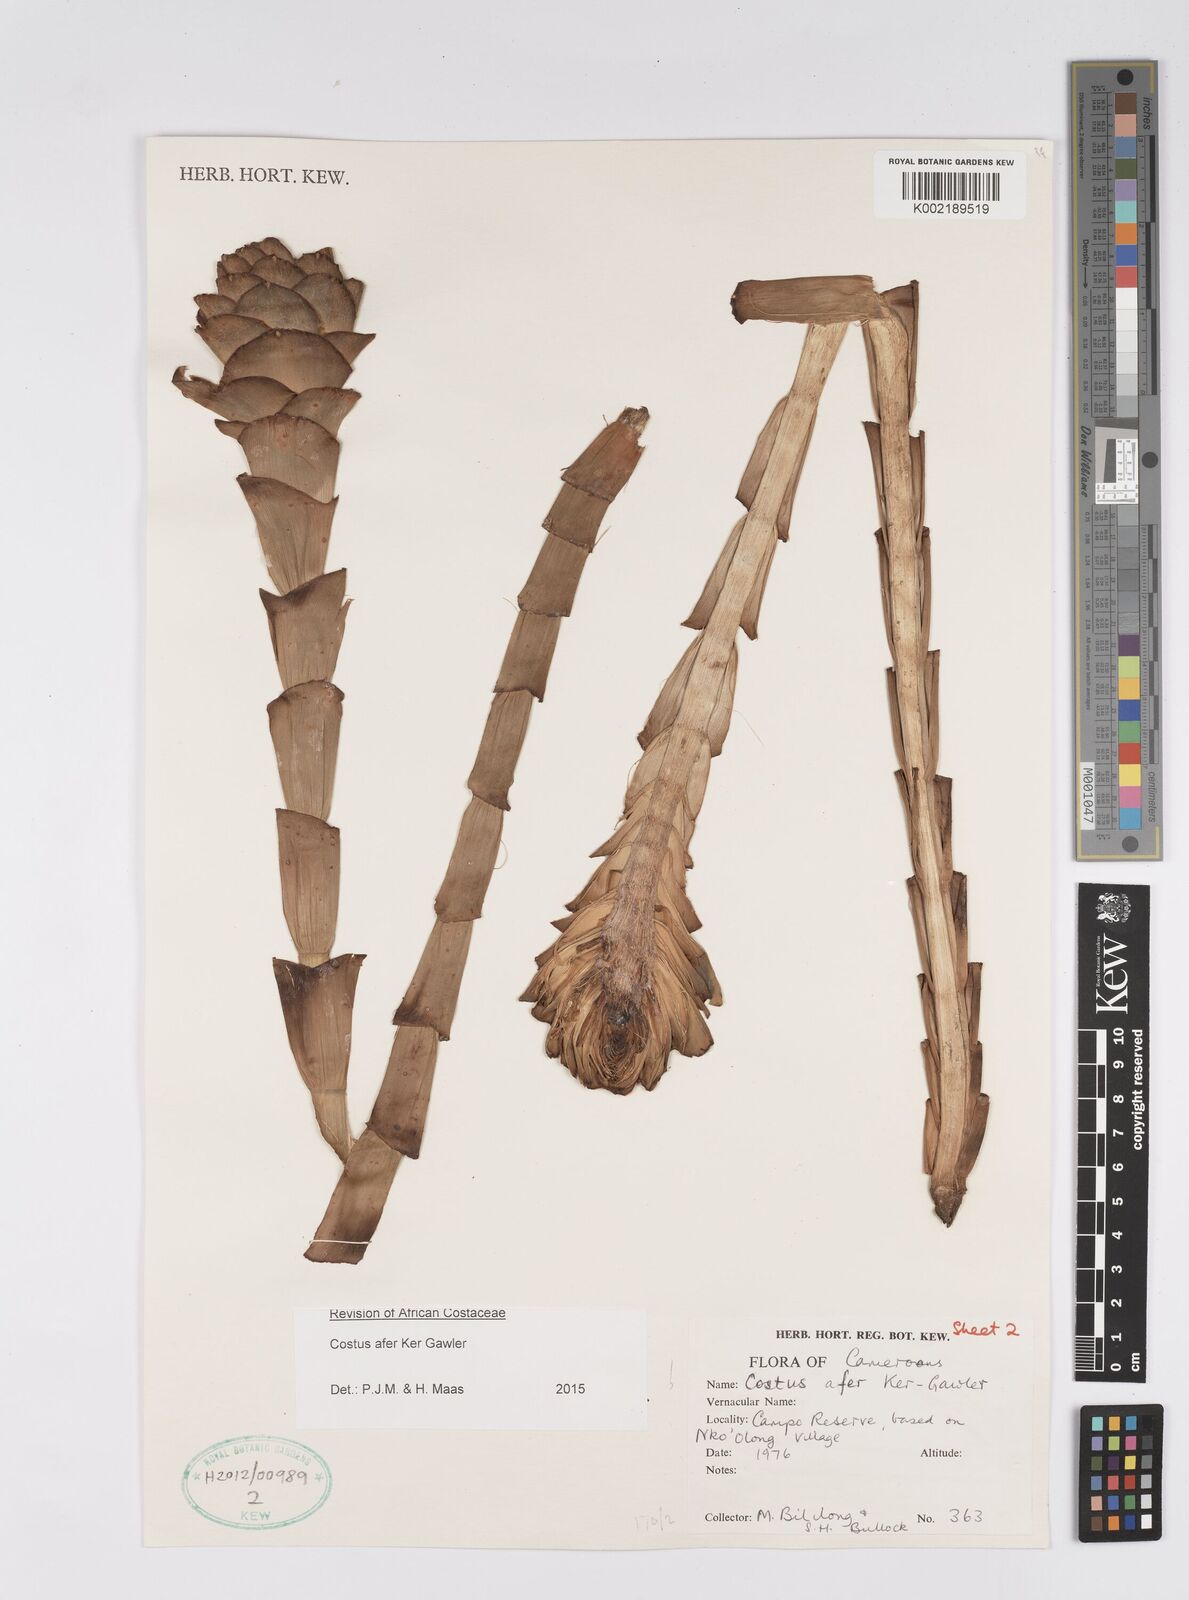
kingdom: Plantae
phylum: Tracheophyta
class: Liliopsida
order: Zingiberales
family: Costaceae
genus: Costus
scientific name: Costus afer
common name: Spiral-ginger
